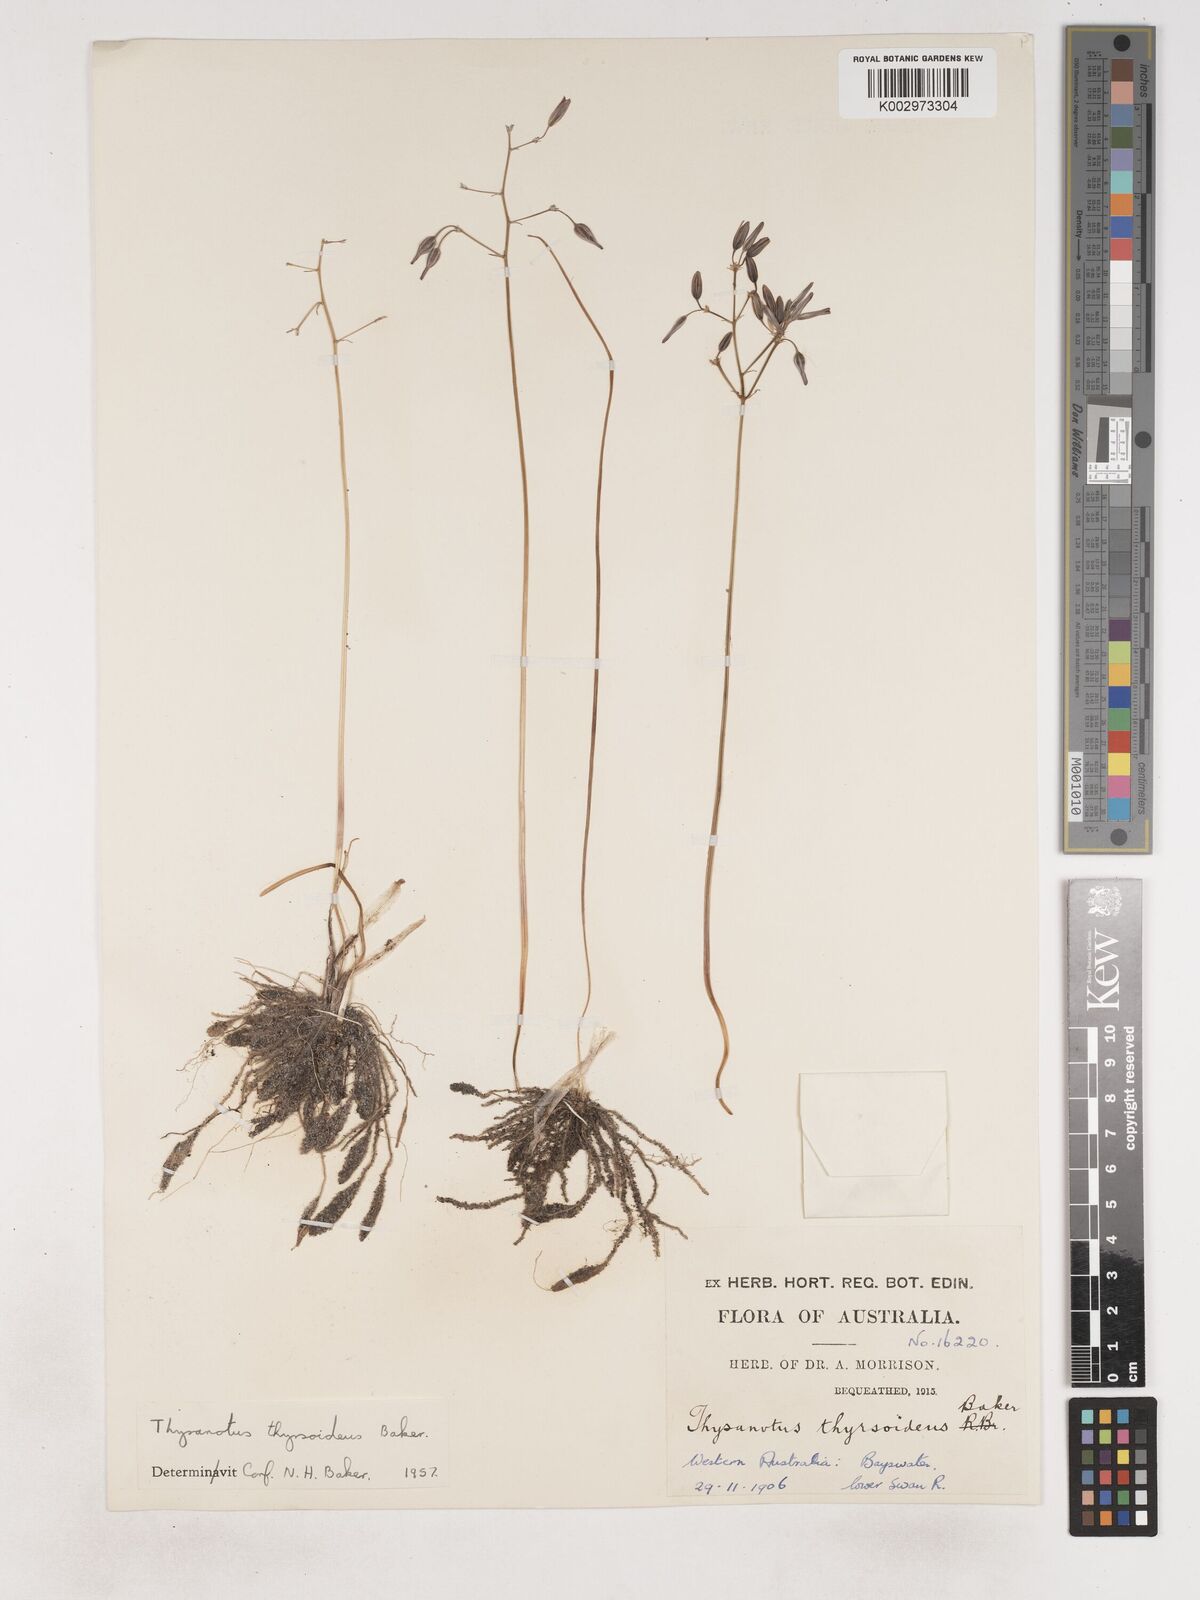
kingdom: Plantae
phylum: Tracheophyta
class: Liliopsida
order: Asparagales
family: Asparagaceae
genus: Thysanotus
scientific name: Thysanotus thyrsoideus
